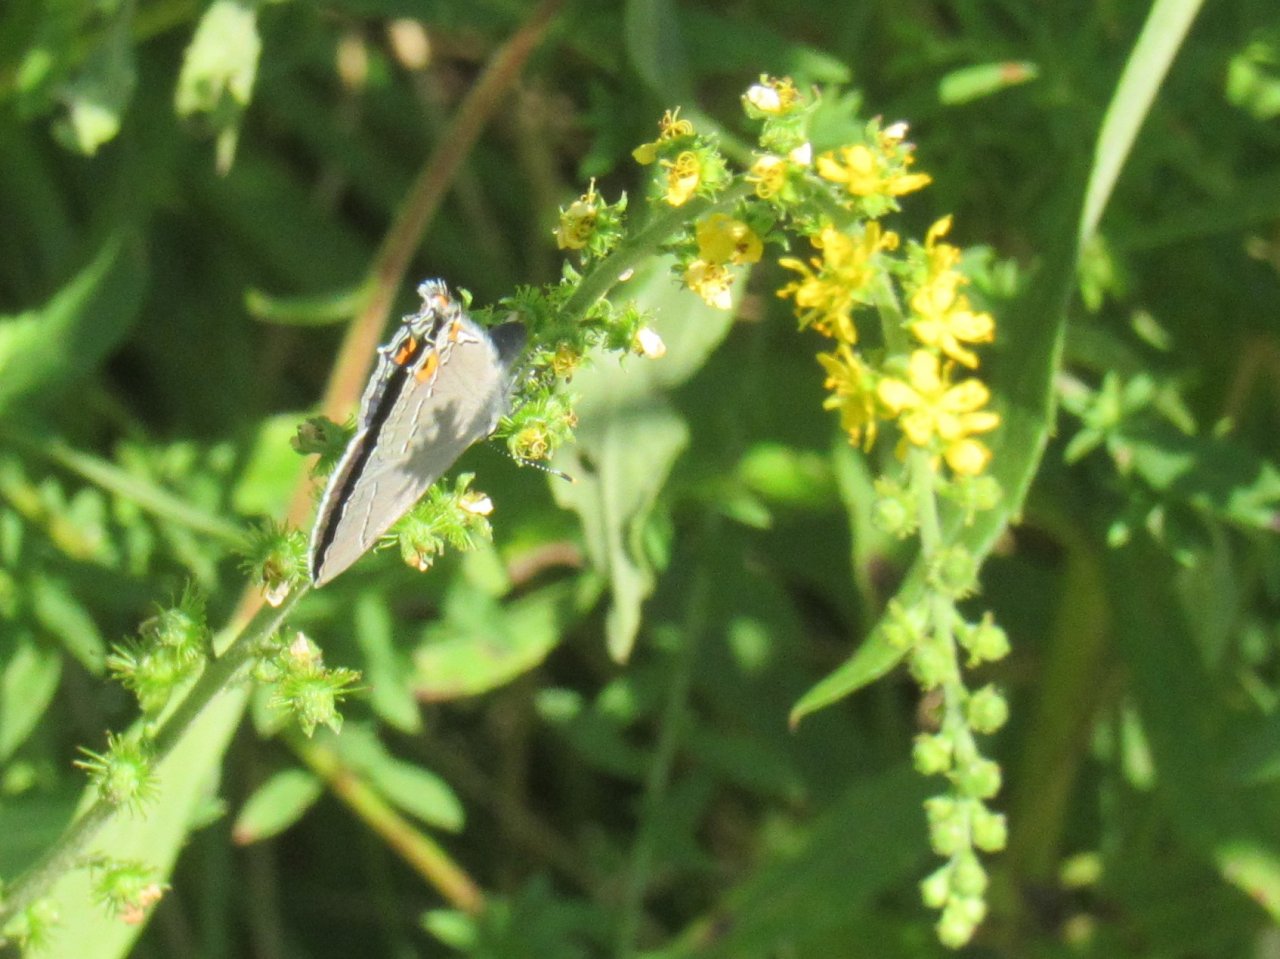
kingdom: Animalia
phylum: Arthropoda
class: Insecta
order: Lepidoptera
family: Lycaenidae
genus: Strymon
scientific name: Strymon melinus
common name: Gray Hairstreak
